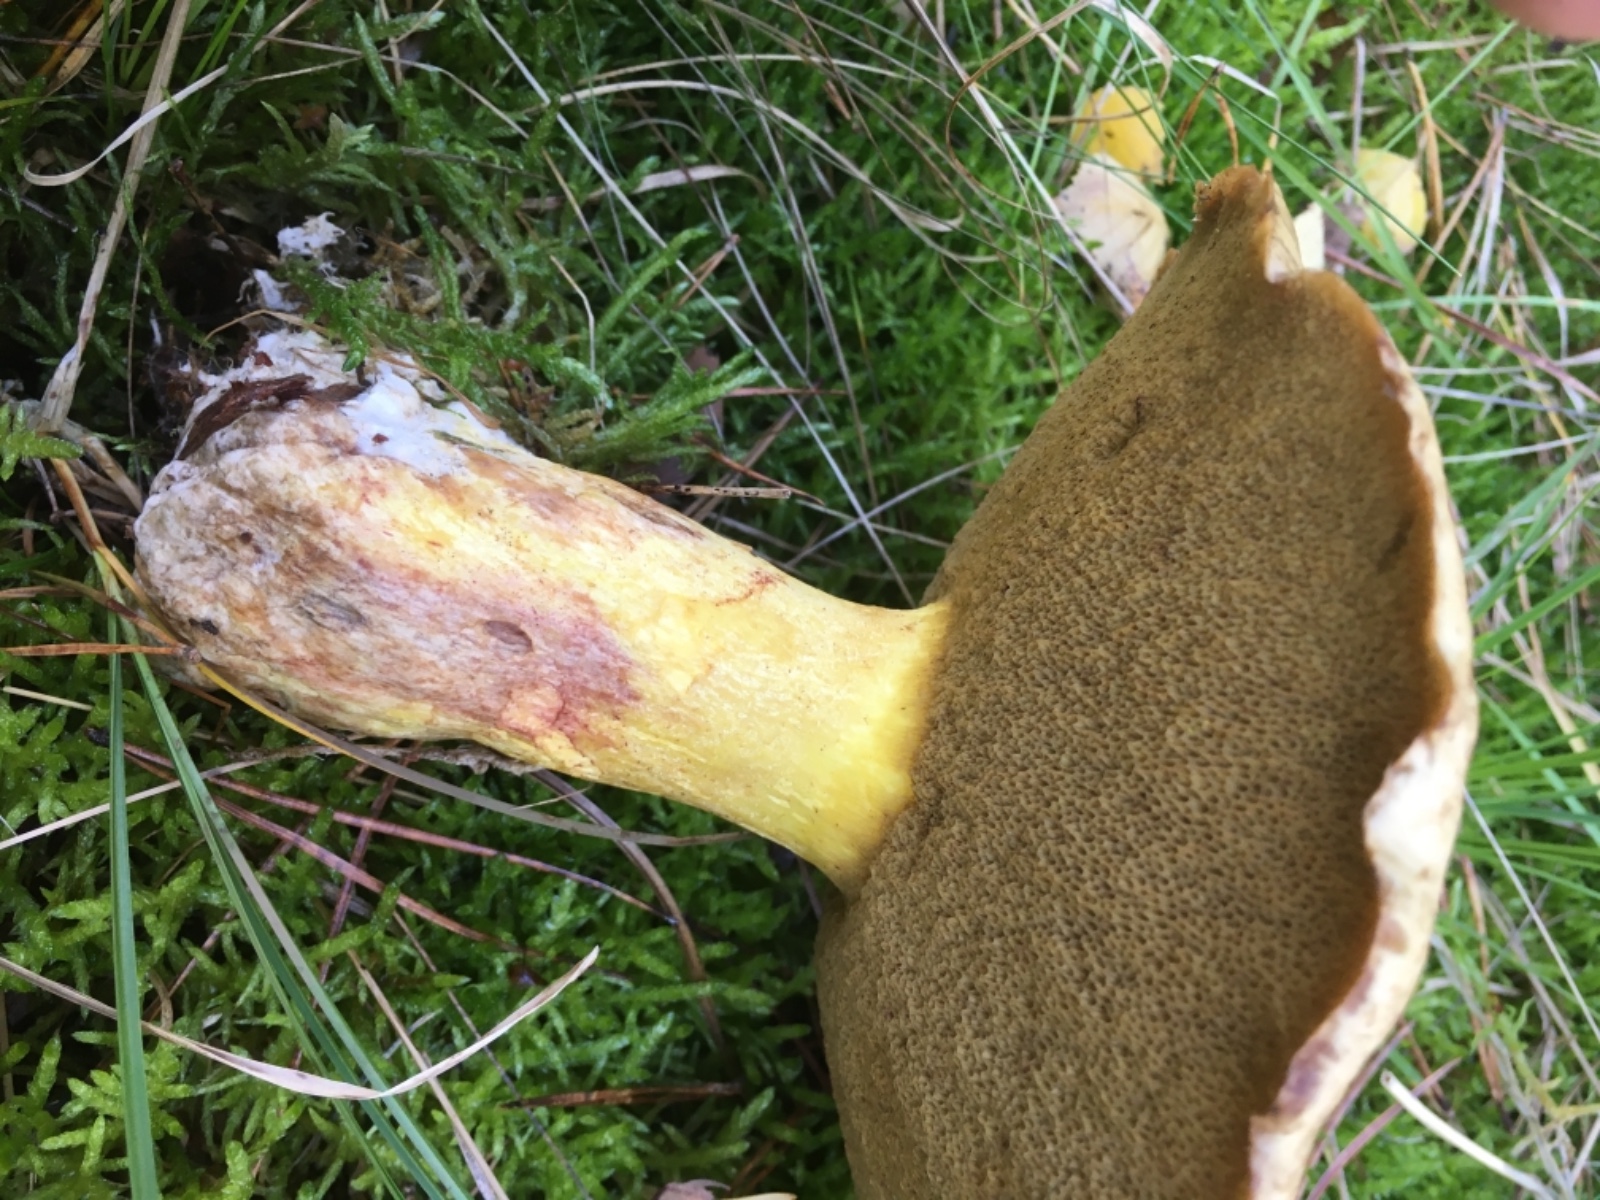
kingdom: Fungi
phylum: Basidiomycota
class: Agaricomycetes
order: Boletales
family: Suillaceae
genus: Suillus
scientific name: Suillus variegatus
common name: broget slimrørhat
